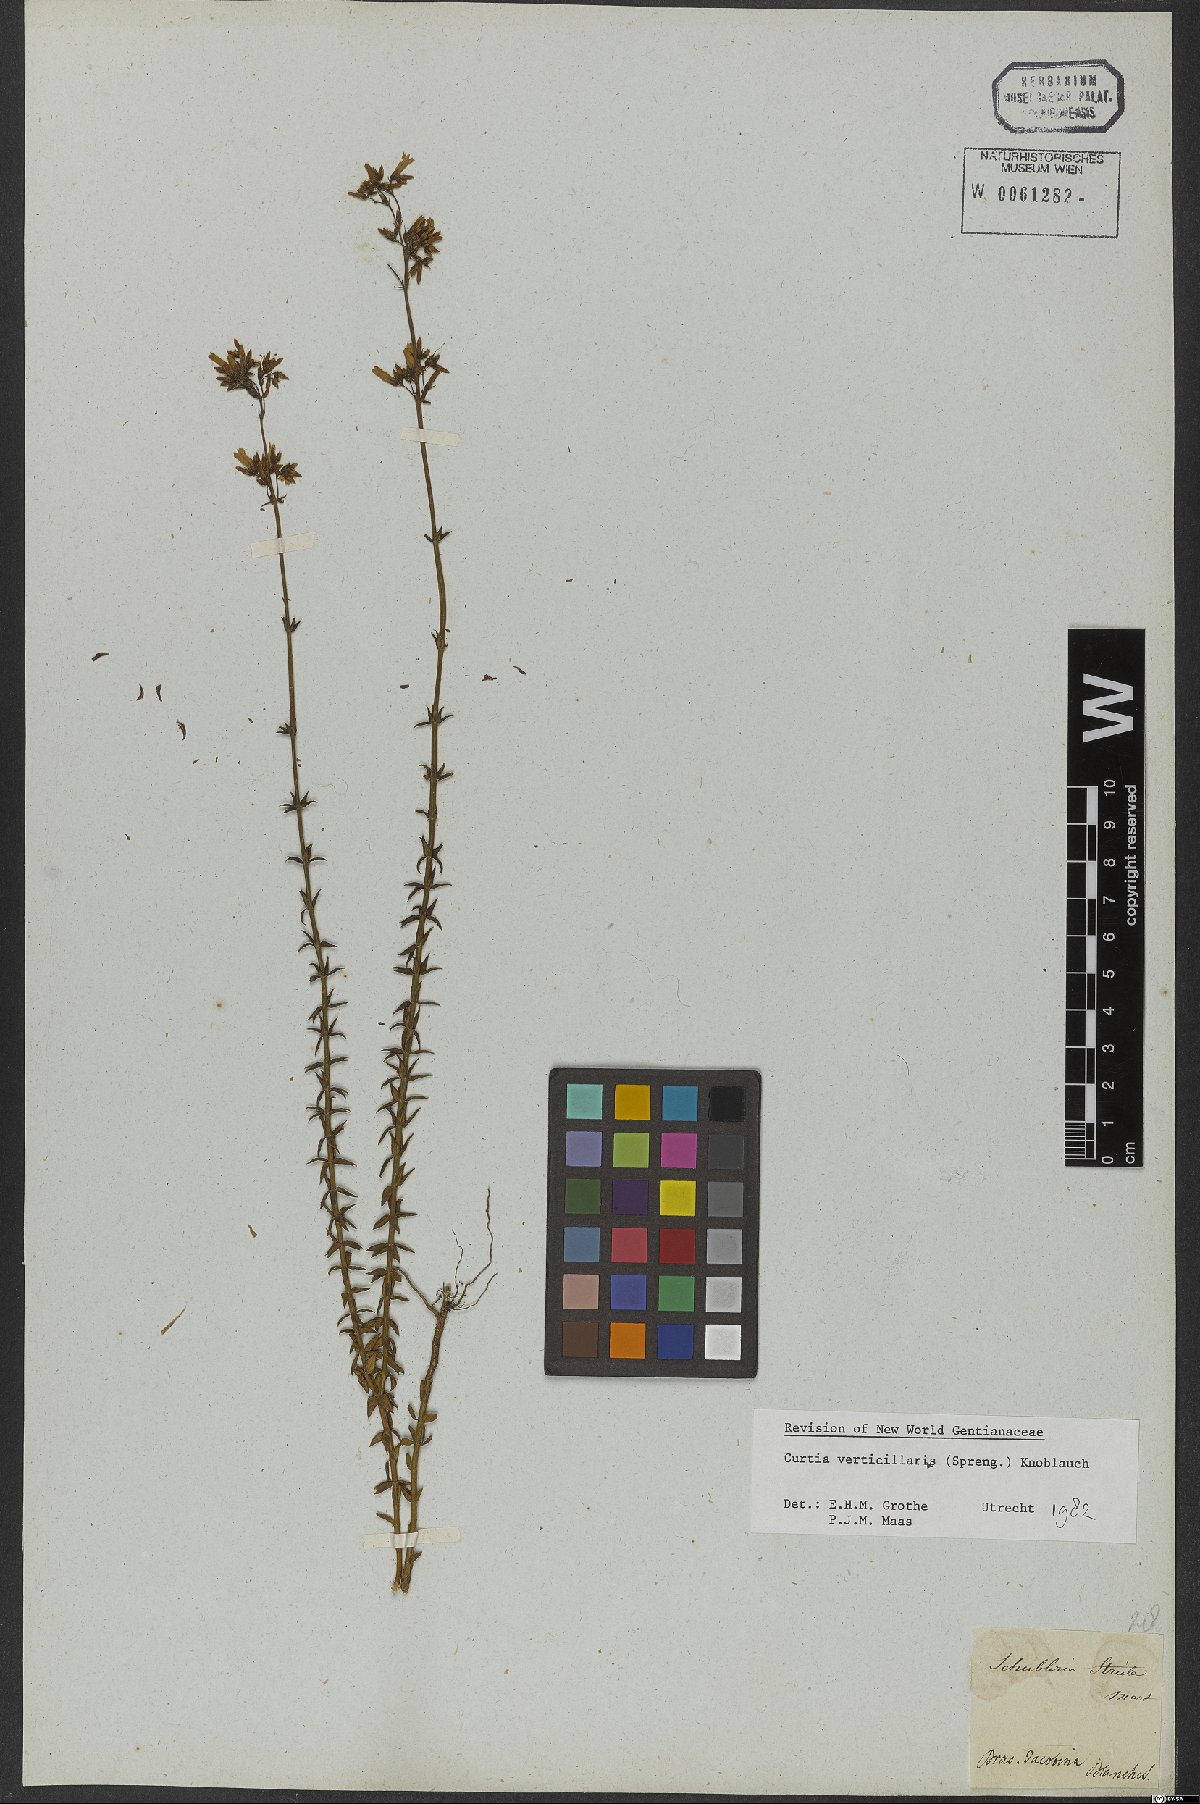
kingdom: Plantae
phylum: Tracheophyta
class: Magnoliopsida
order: Gentianales
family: Gentianaceae
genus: Curtia
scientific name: Curtia verticillaris
